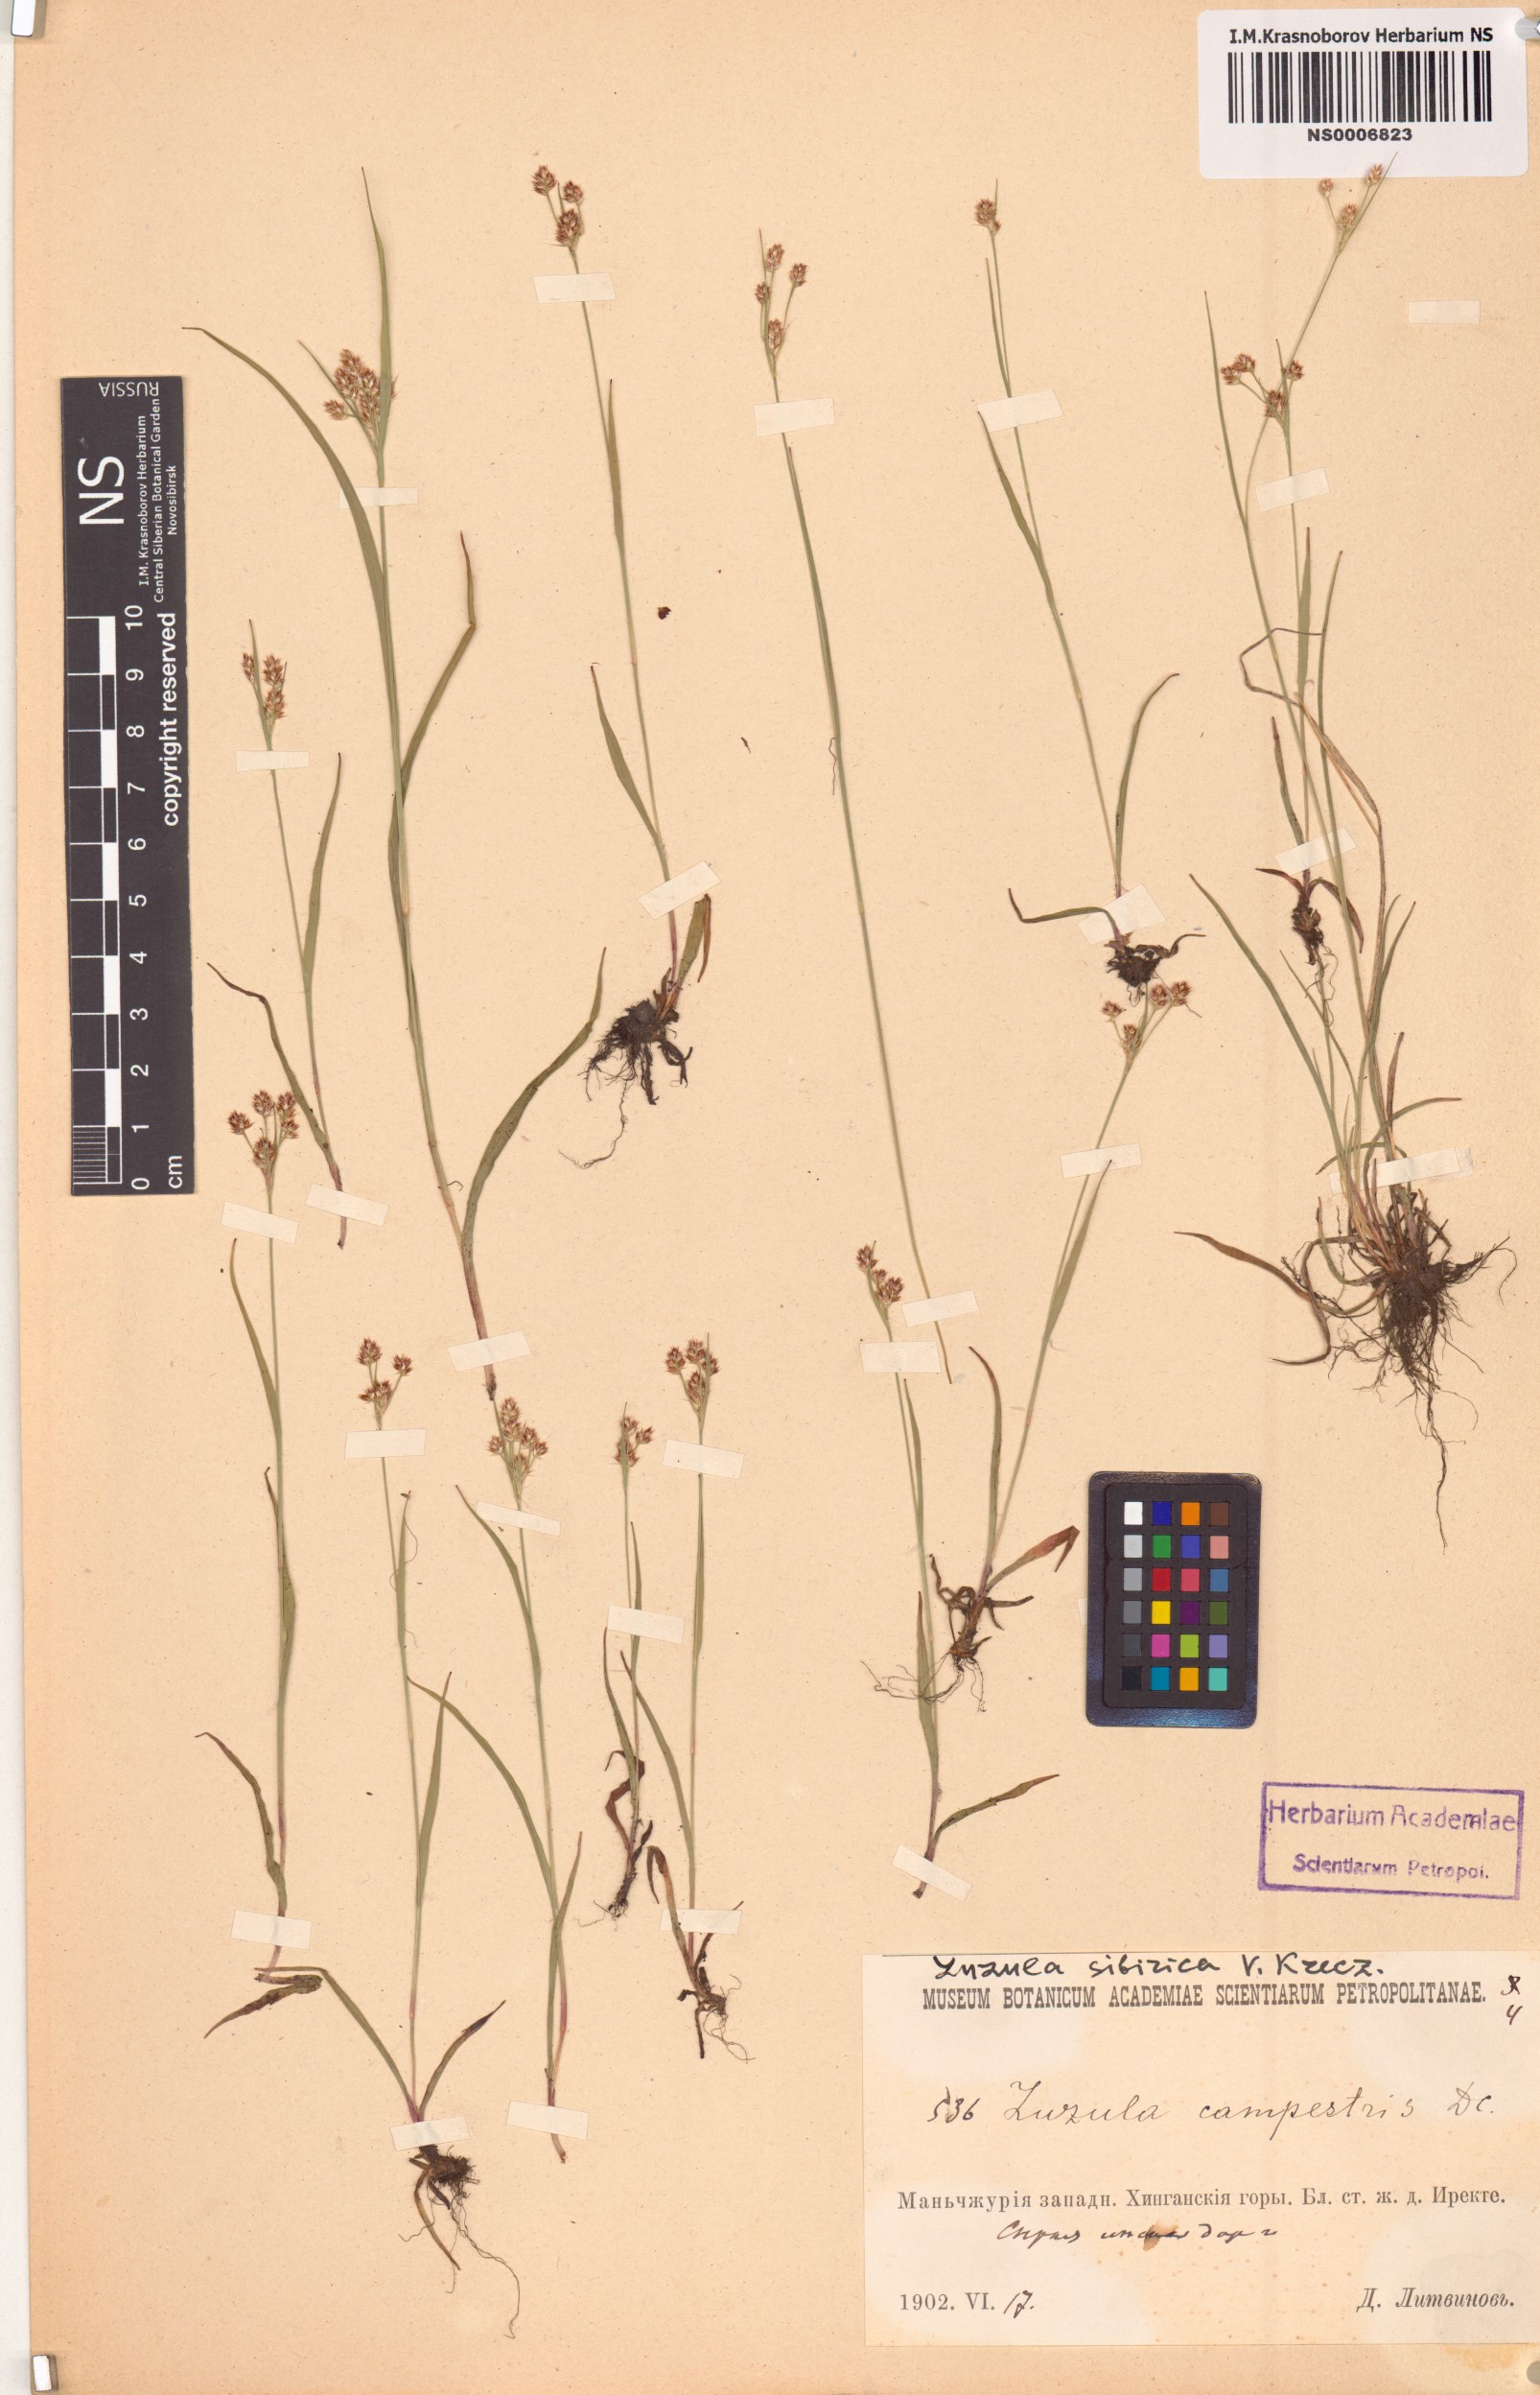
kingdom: Plantae
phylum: Tracheophyta
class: Liliopsida
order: Poales
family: Juncaceae
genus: Luzula
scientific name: Luzula multiflora
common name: Heath wood-rush
